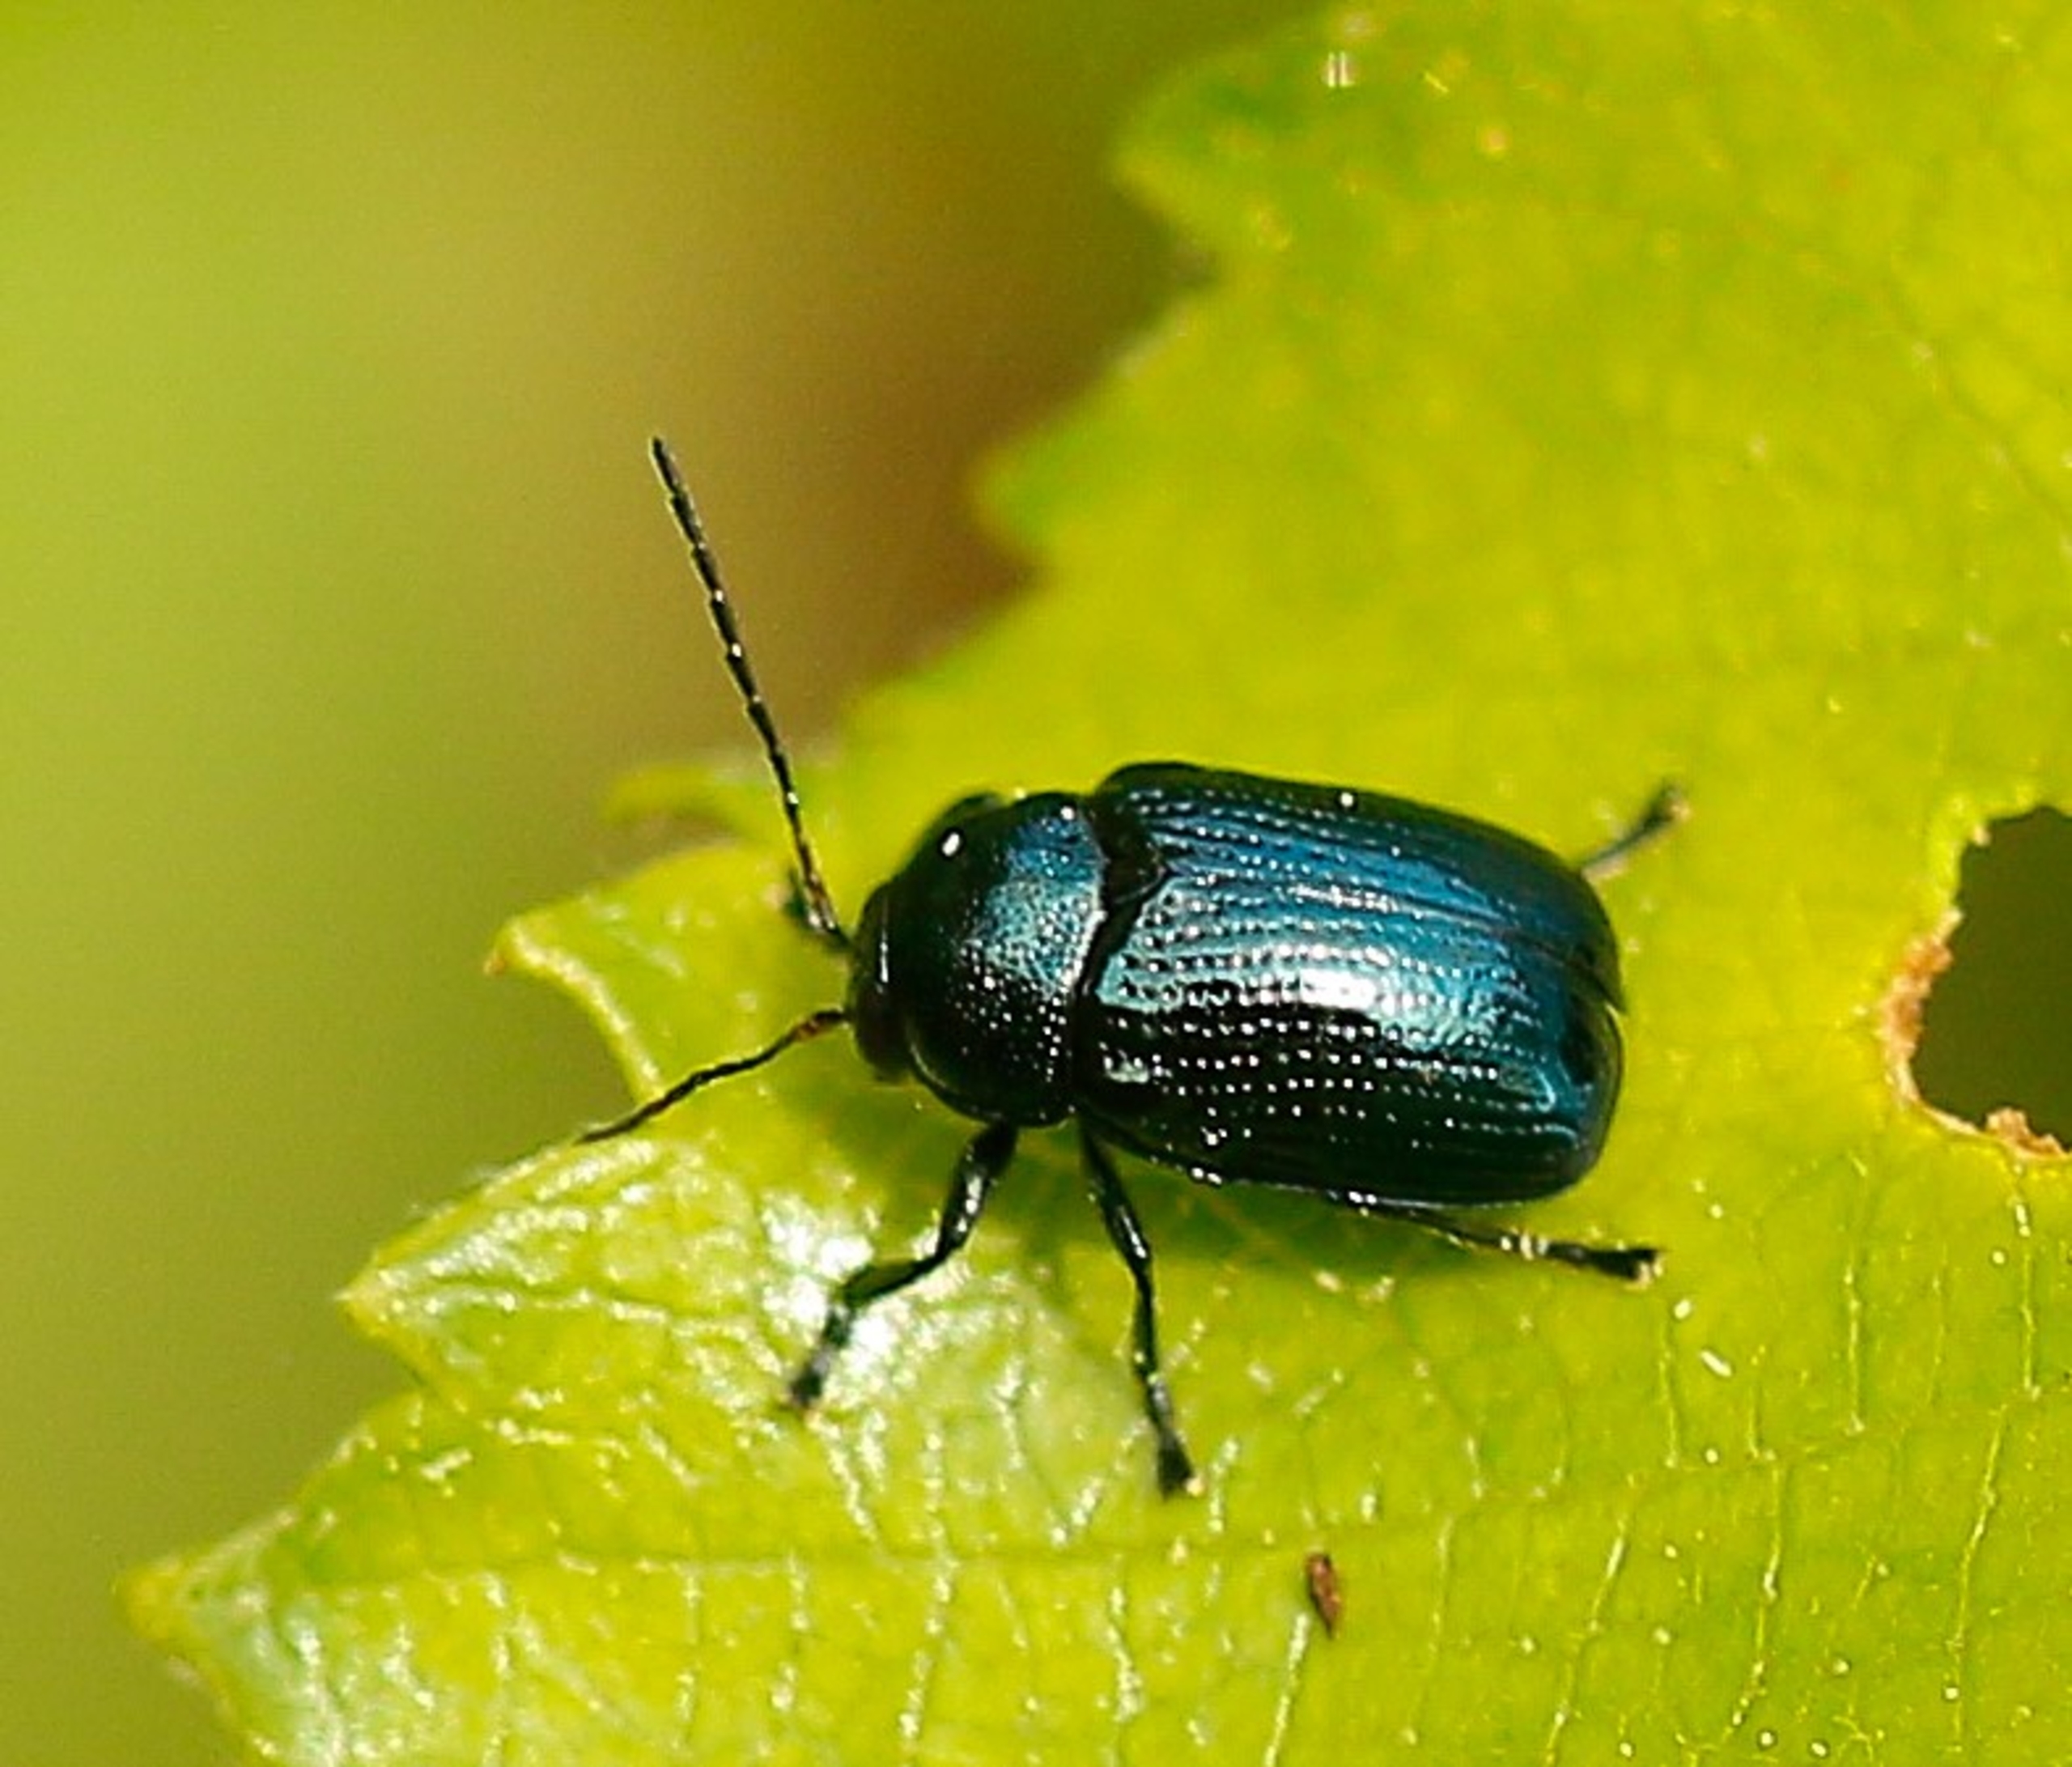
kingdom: Animalia
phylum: Arthropoda
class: Insecta
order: Coleoptera
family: Chrysomelidae
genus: Cryptocephalus
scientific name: Cryptocephalus parvulus
